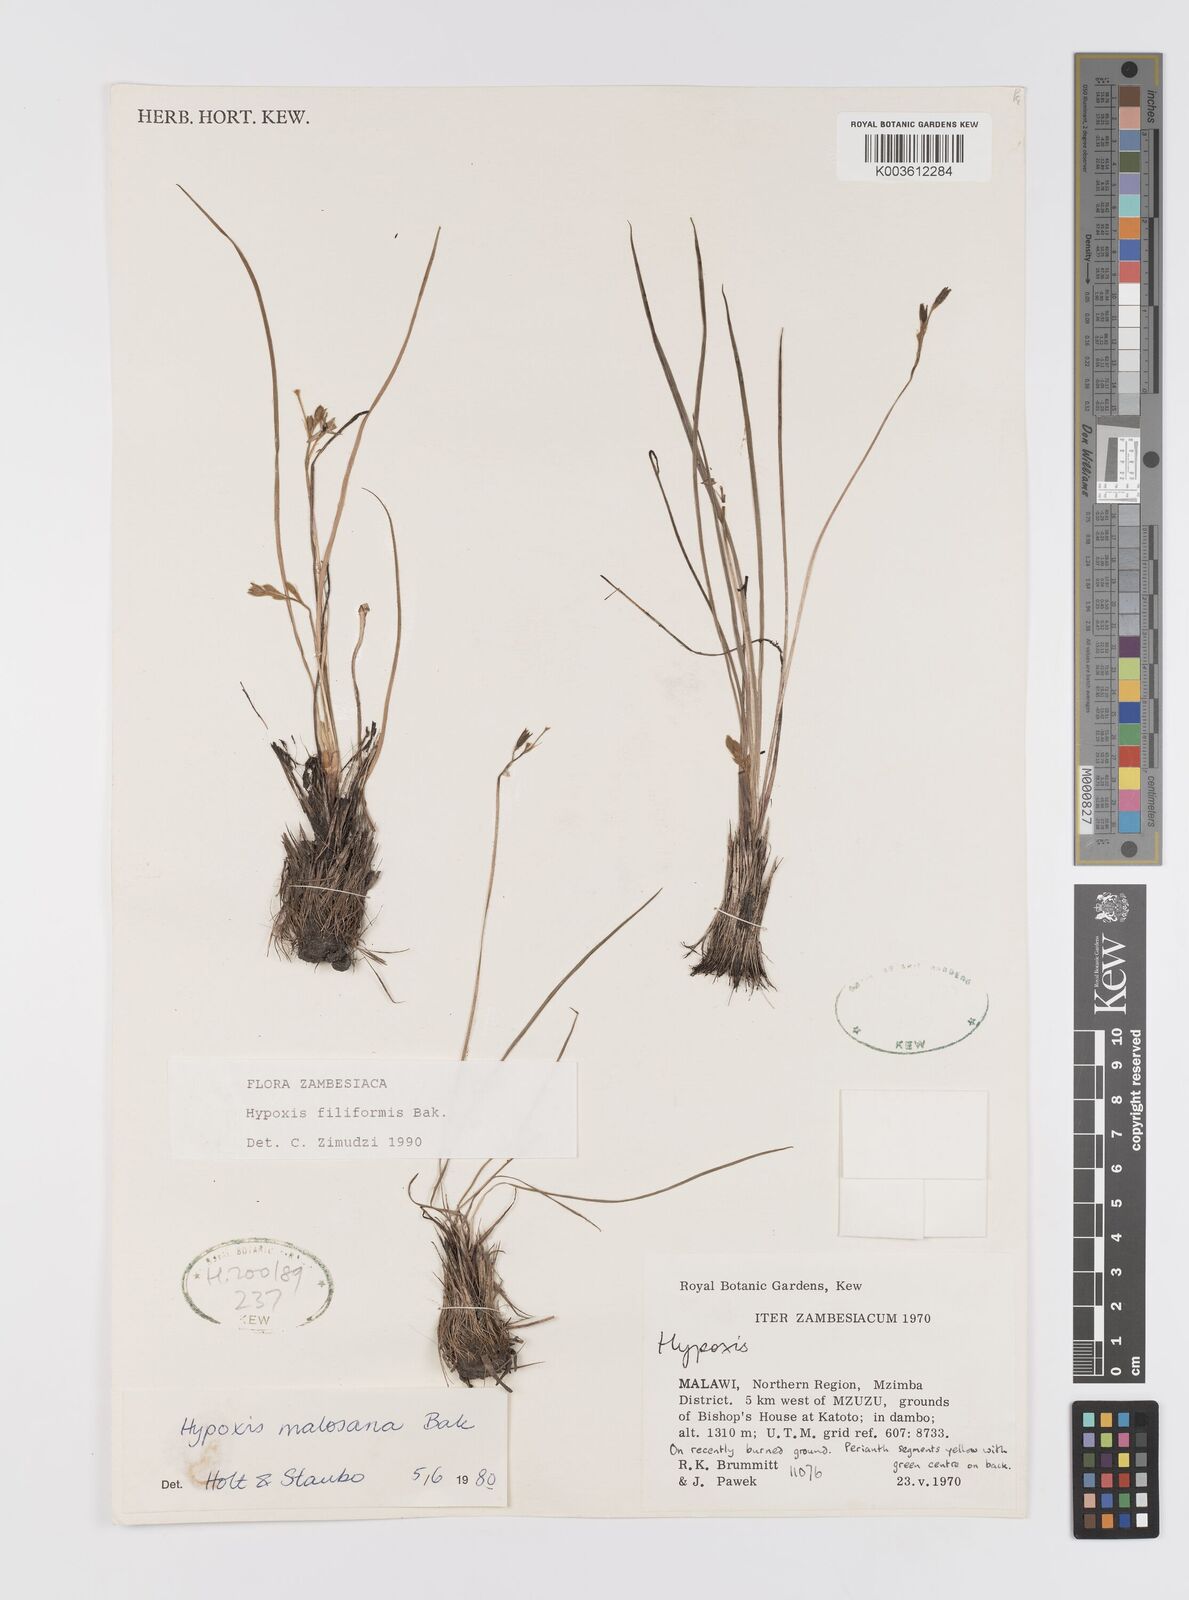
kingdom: Plantae
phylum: Tracheophyta
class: Liliopsida
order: Asparagales
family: Hypoxidaceae
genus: Hypoxis
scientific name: Hypoxis filiformis
